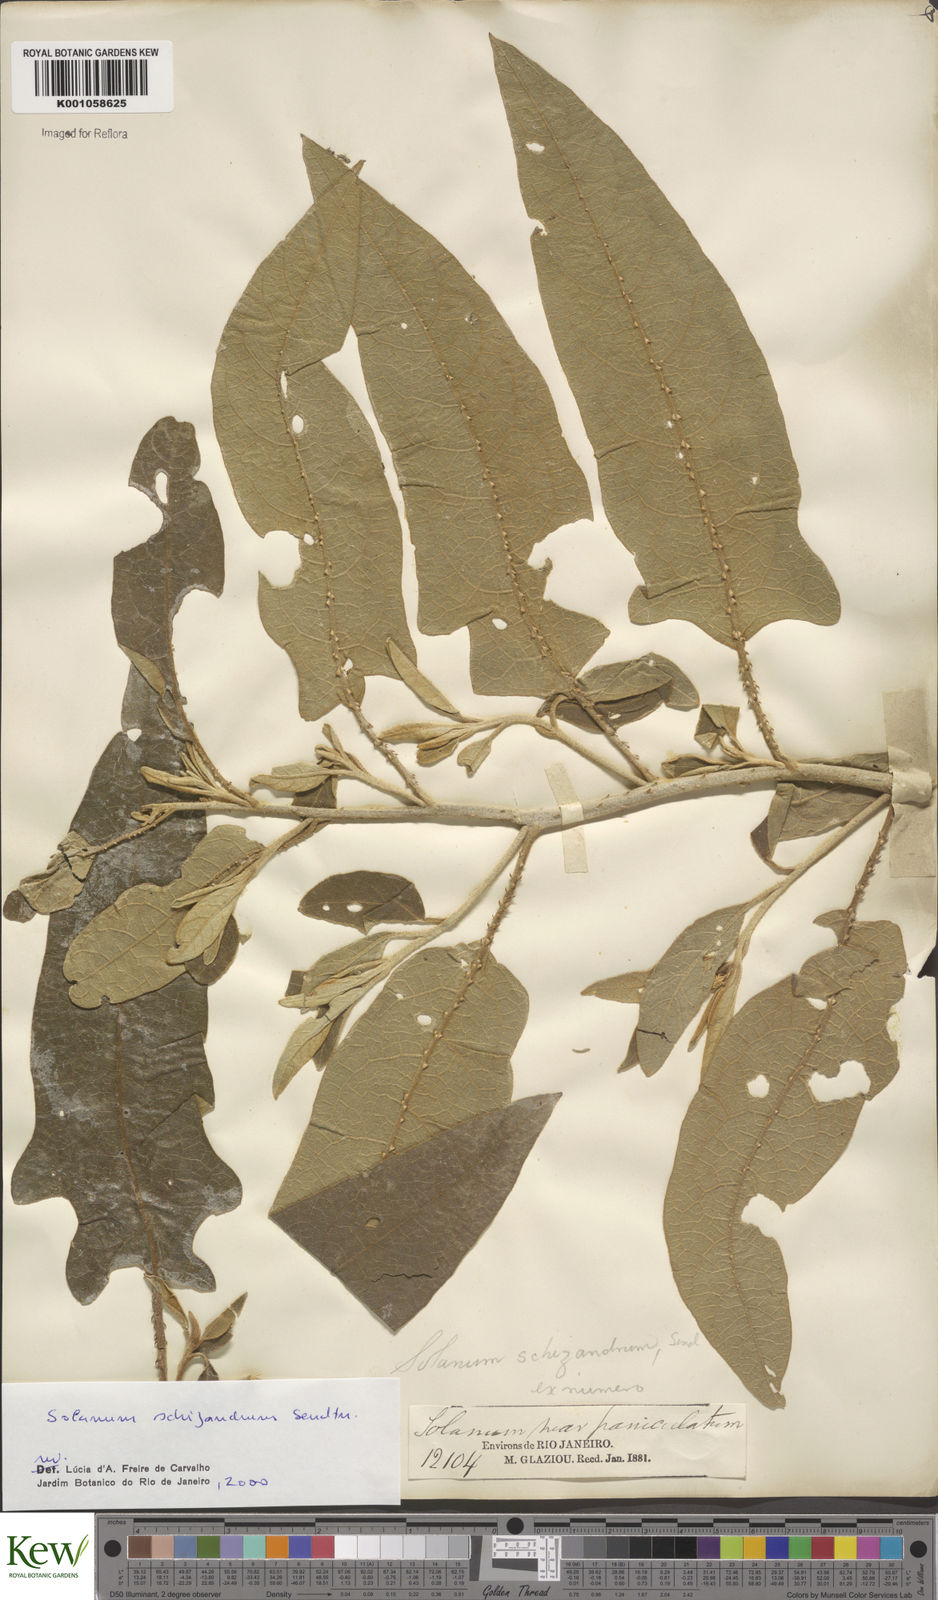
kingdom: Plantae
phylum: Tracheophyta
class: Magnoliopsida
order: Solanales
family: Solanaceae
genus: Solanum
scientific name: Solanum schizandrum
